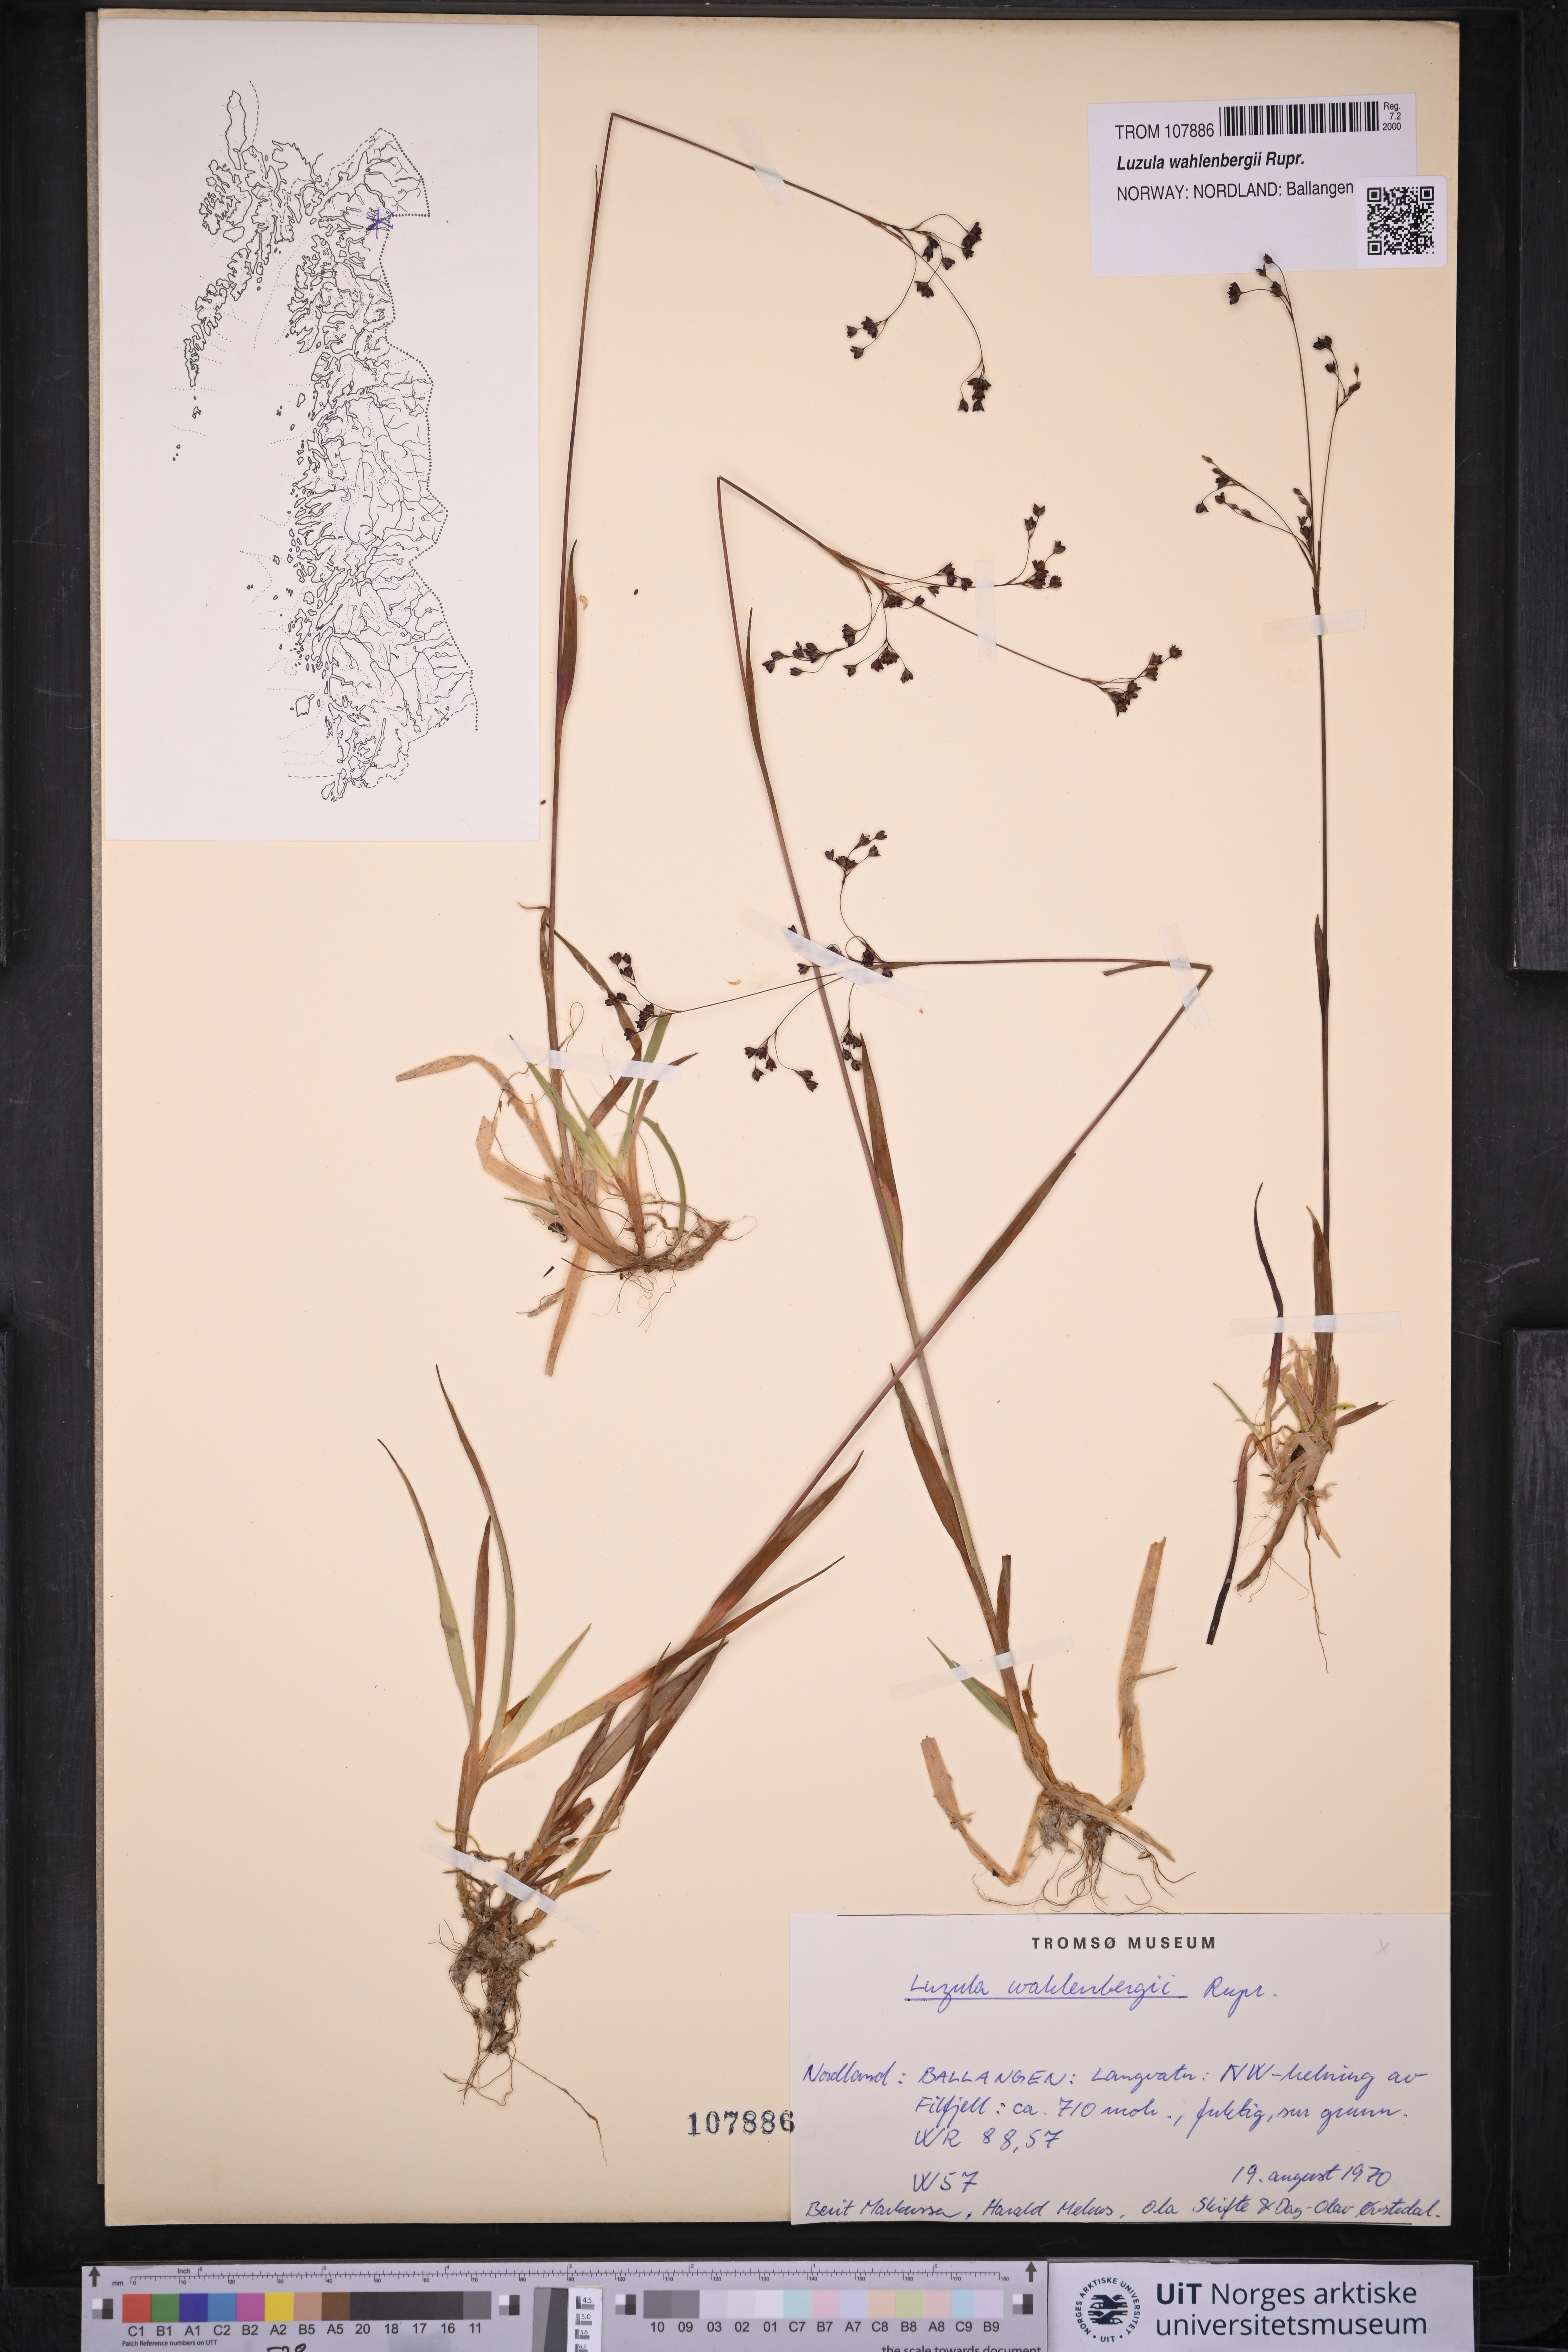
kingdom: Plantae
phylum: Tracheophyta
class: Liliopsida
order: Poales
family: Juncaceae
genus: Luzula
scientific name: Luzula wahlenbergii
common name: Wahlenberg's wood-rush
